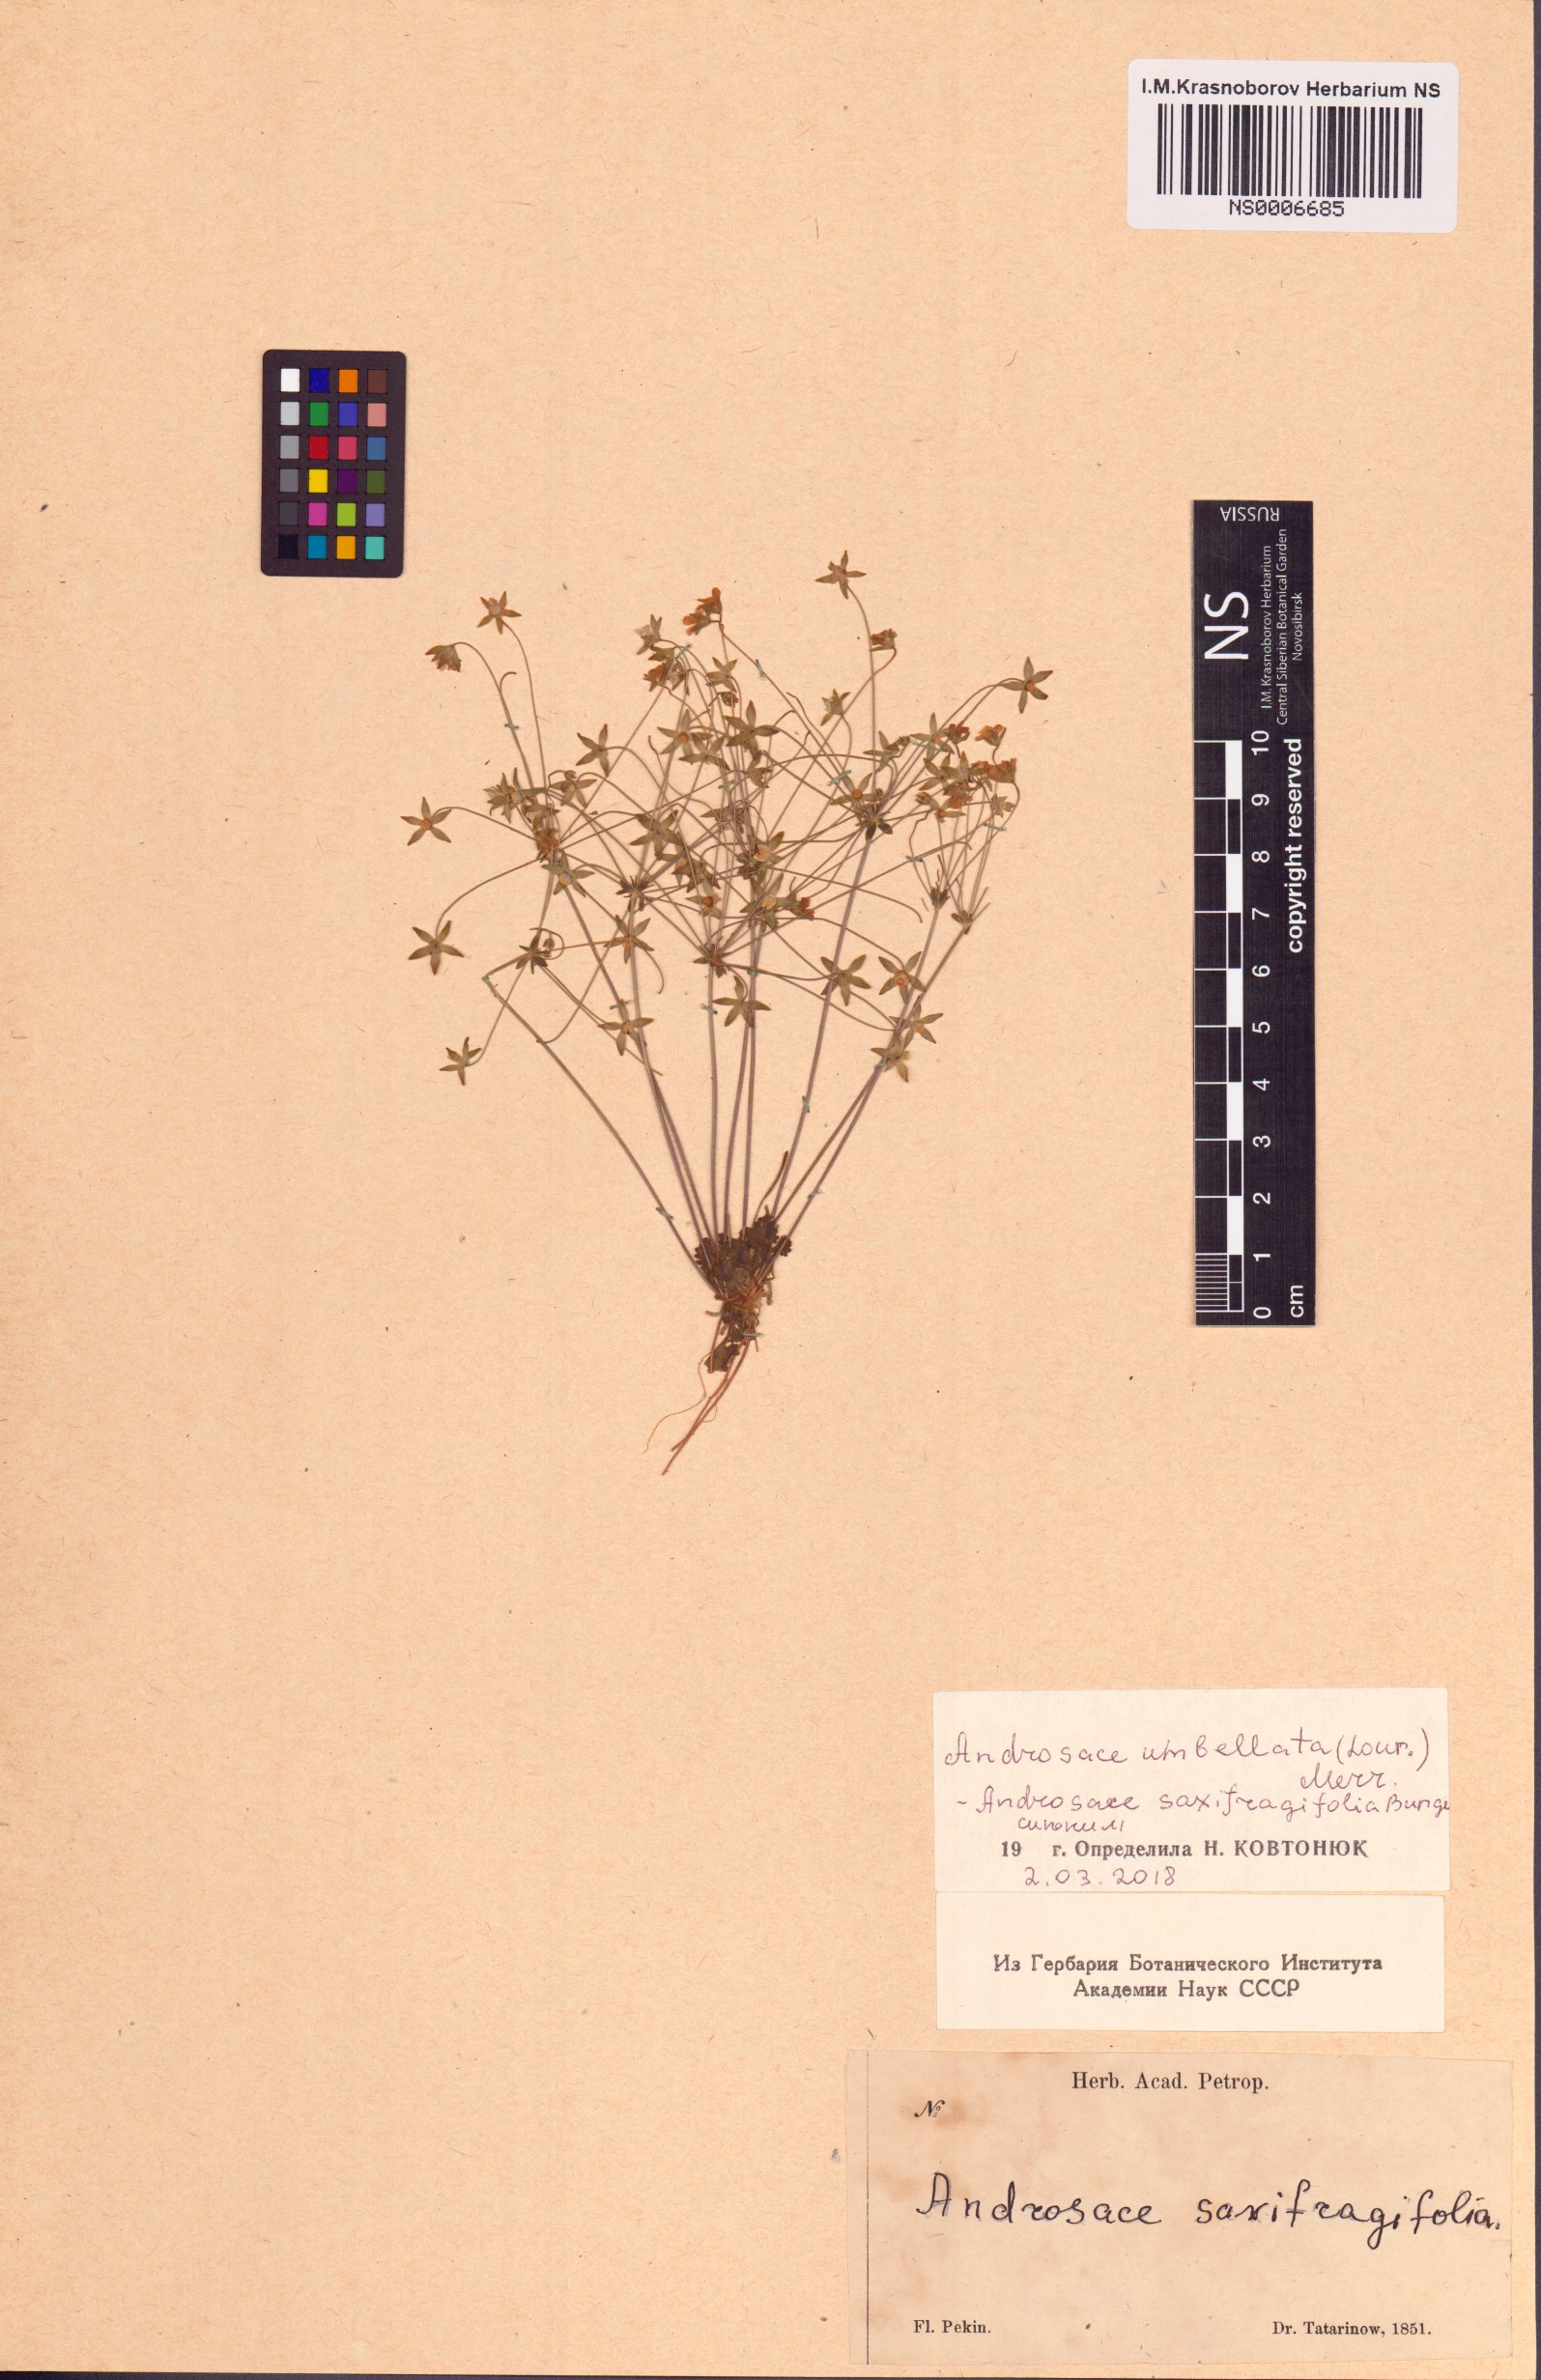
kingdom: Plantae
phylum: Tracheophyta
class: Magnoliopsida
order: Ericales
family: Primulaceae
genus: Androsace
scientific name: Androsace umbellata
